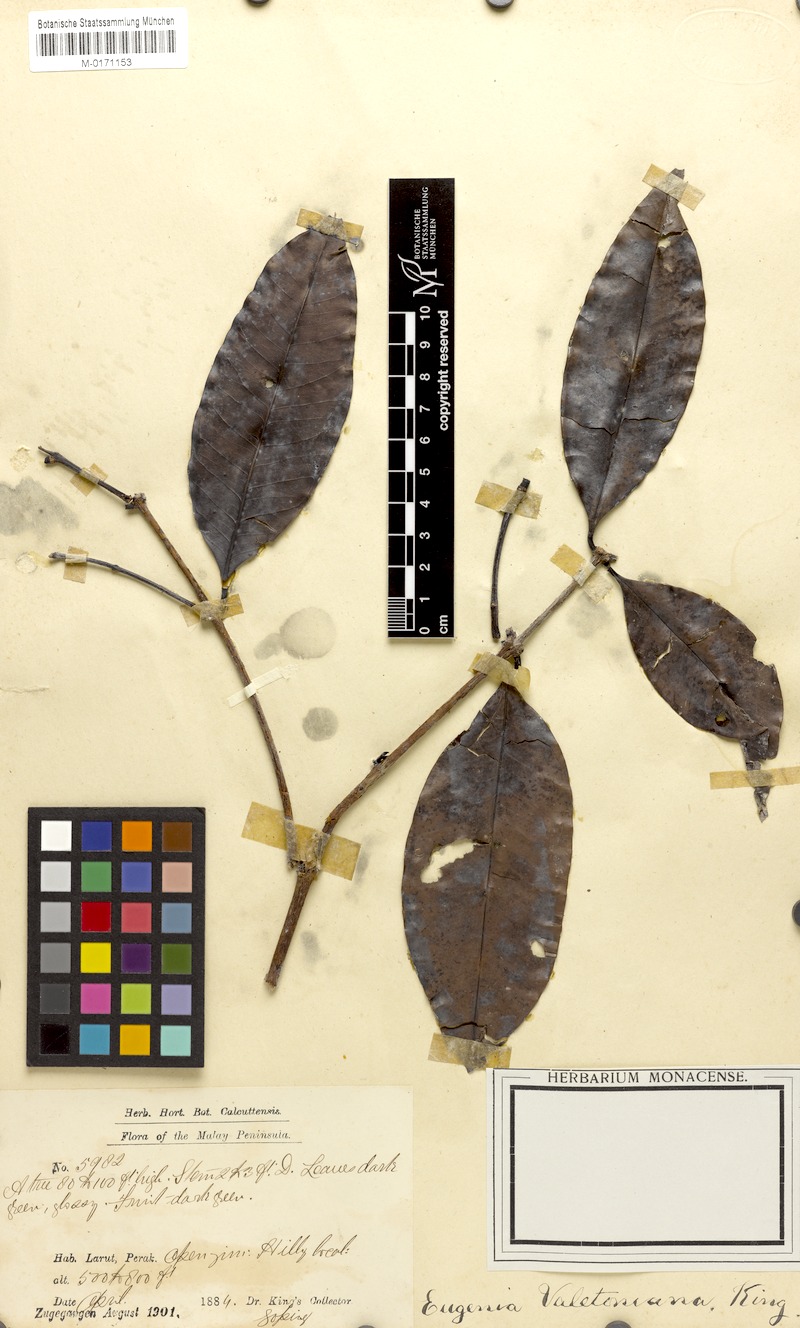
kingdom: Plantae
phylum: Tracheophyta
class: Magnoliopsida
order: Myrtales
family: Myrtaceae
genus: Syzygium
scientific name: Syzygium valetonianum
